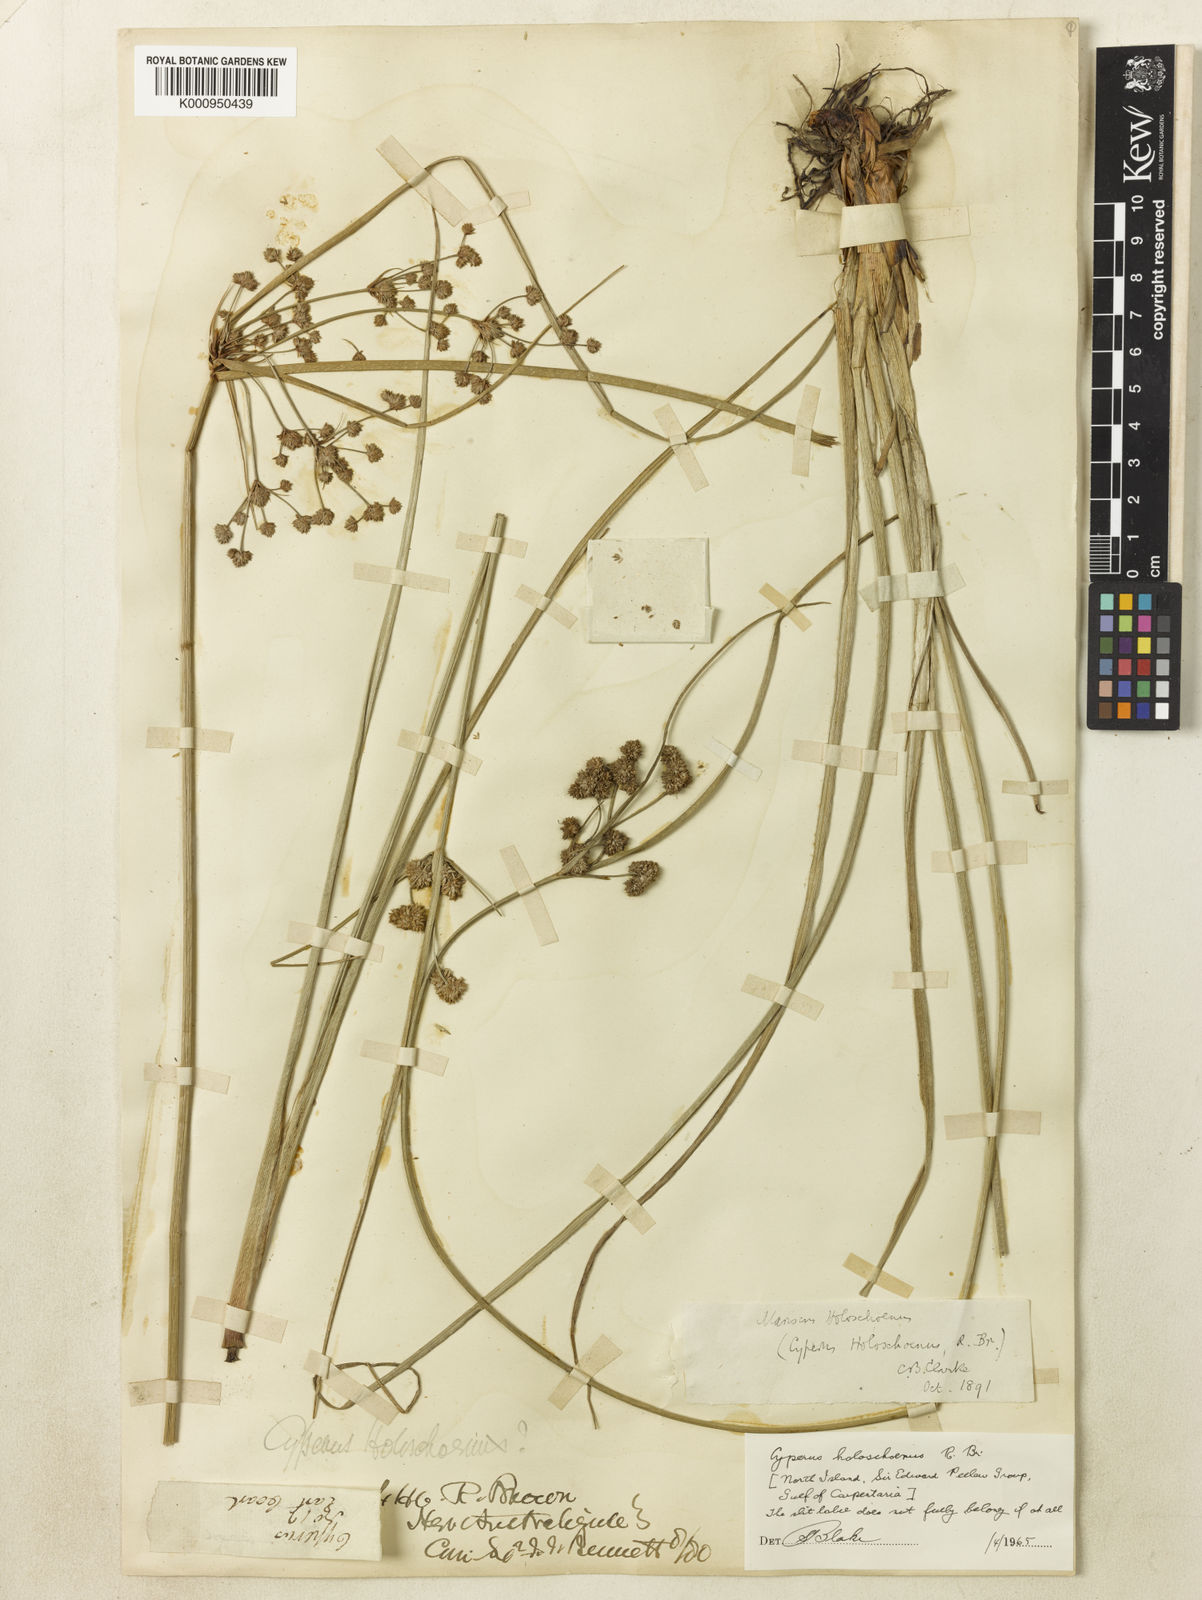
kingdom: Plantae
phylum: Tracheophyta
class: Liliopsida
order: Poales
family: Cyperaceae
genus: Cyperus
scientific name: Cyperus holoschoenus
